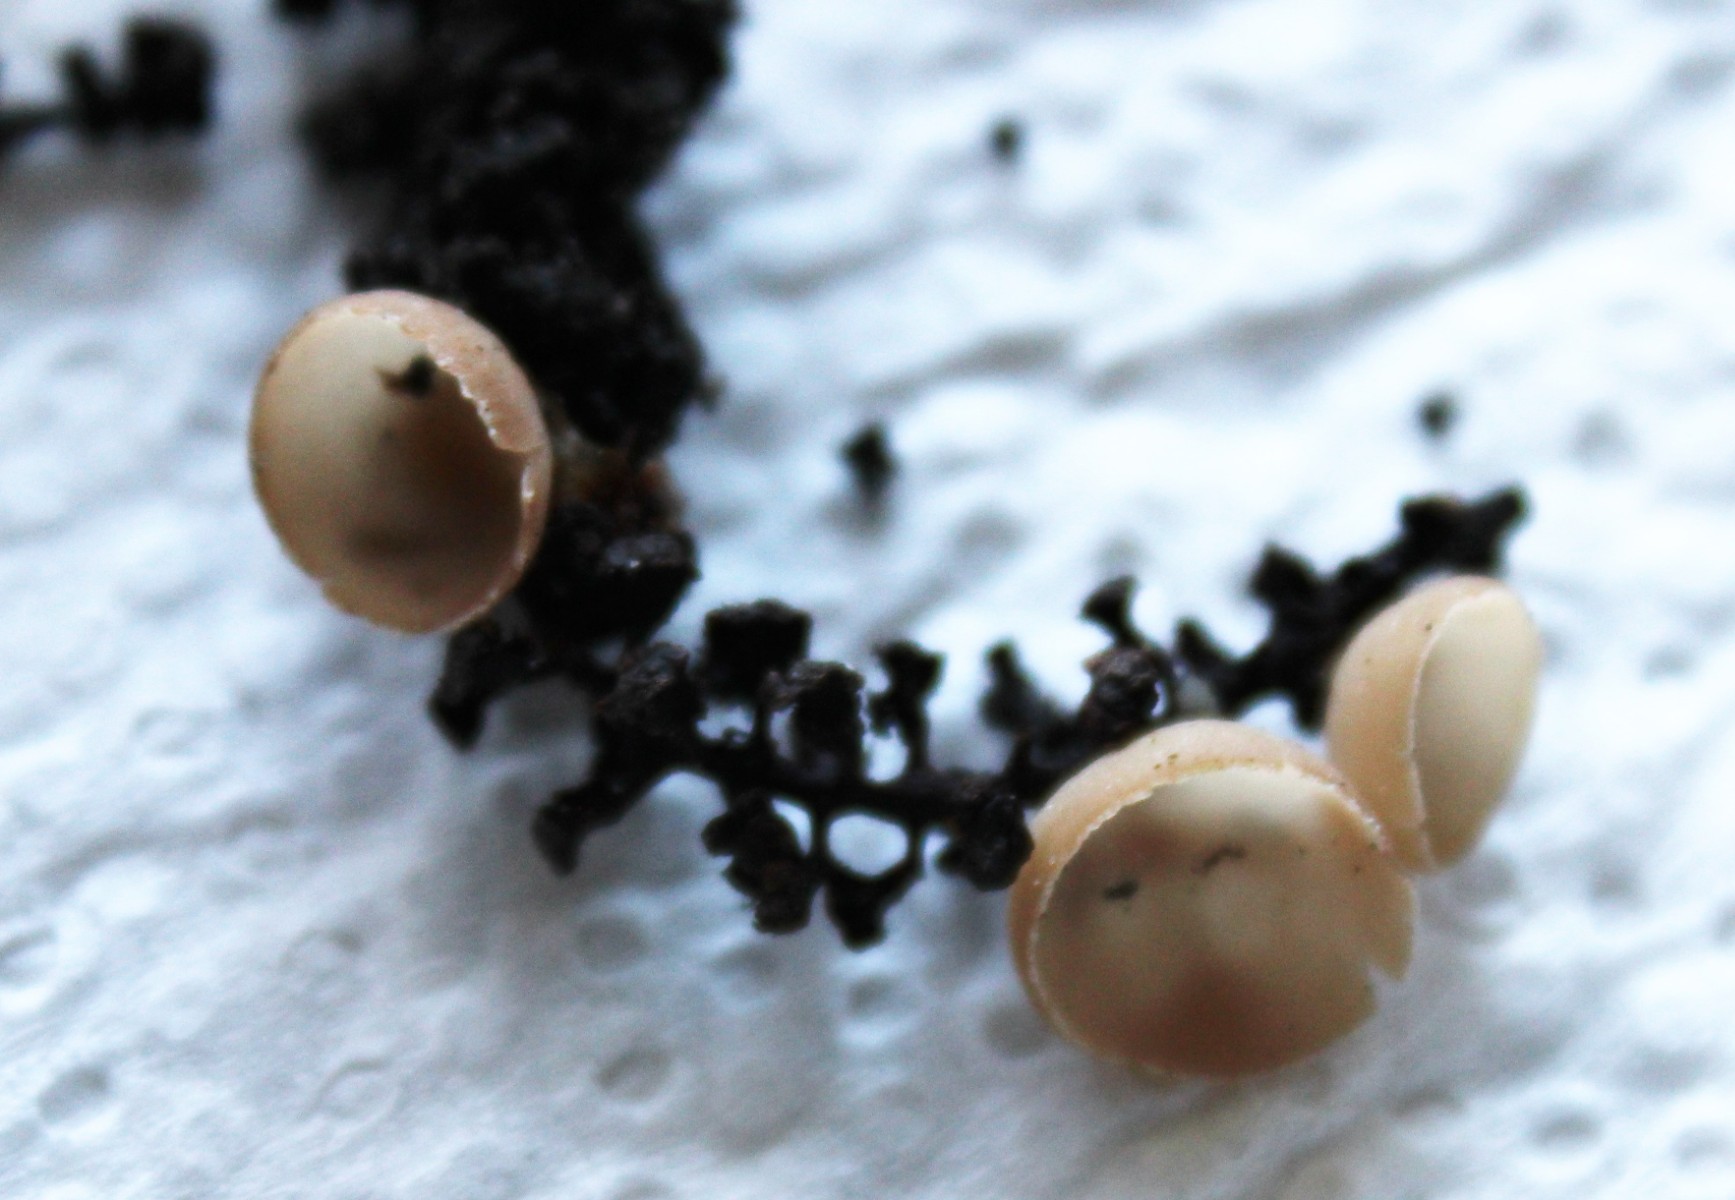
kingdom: Fungi
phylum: Ascomycota
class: Leotiomycetes
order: Helotiales
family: Sclerotiniaceae
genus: Ciboria
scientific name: Ciboria amentacea
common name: ellerakle-knoldskive
